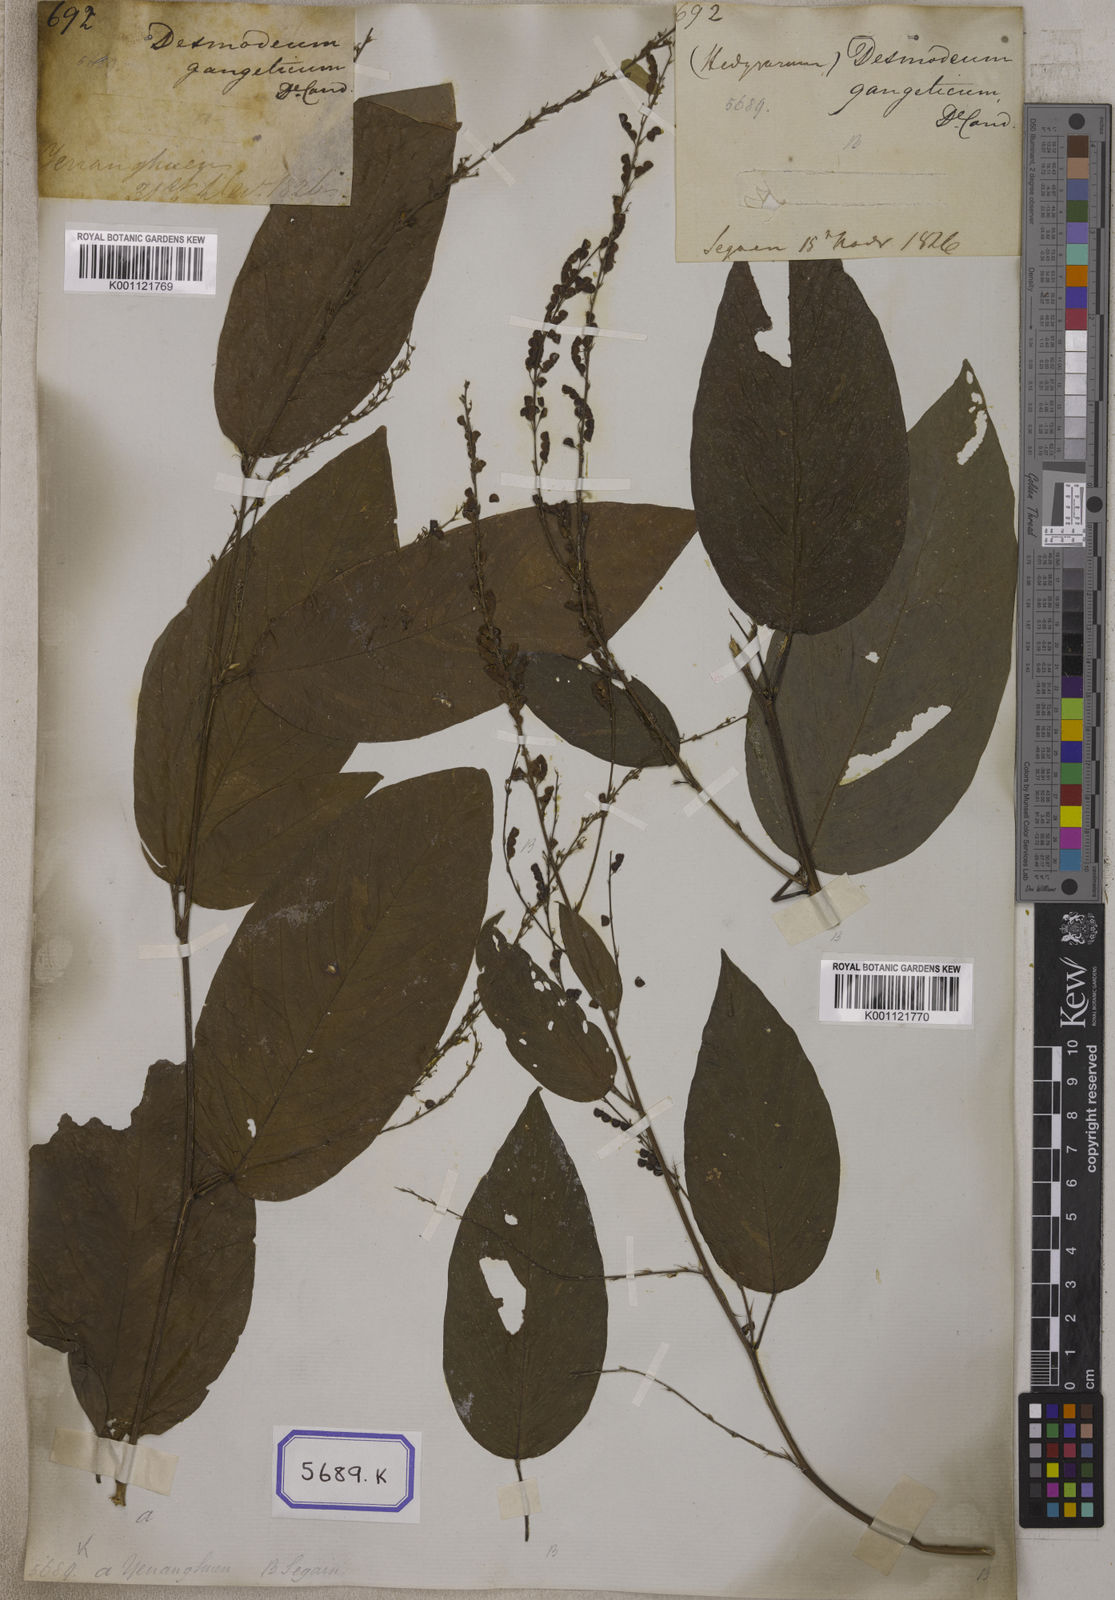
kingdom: Plantae
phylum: Tracheophyta
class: Magnoliopsida
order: Fabales
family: Fabaceae
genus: Pleurolobus
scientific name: Pleurolobus gangeticus
